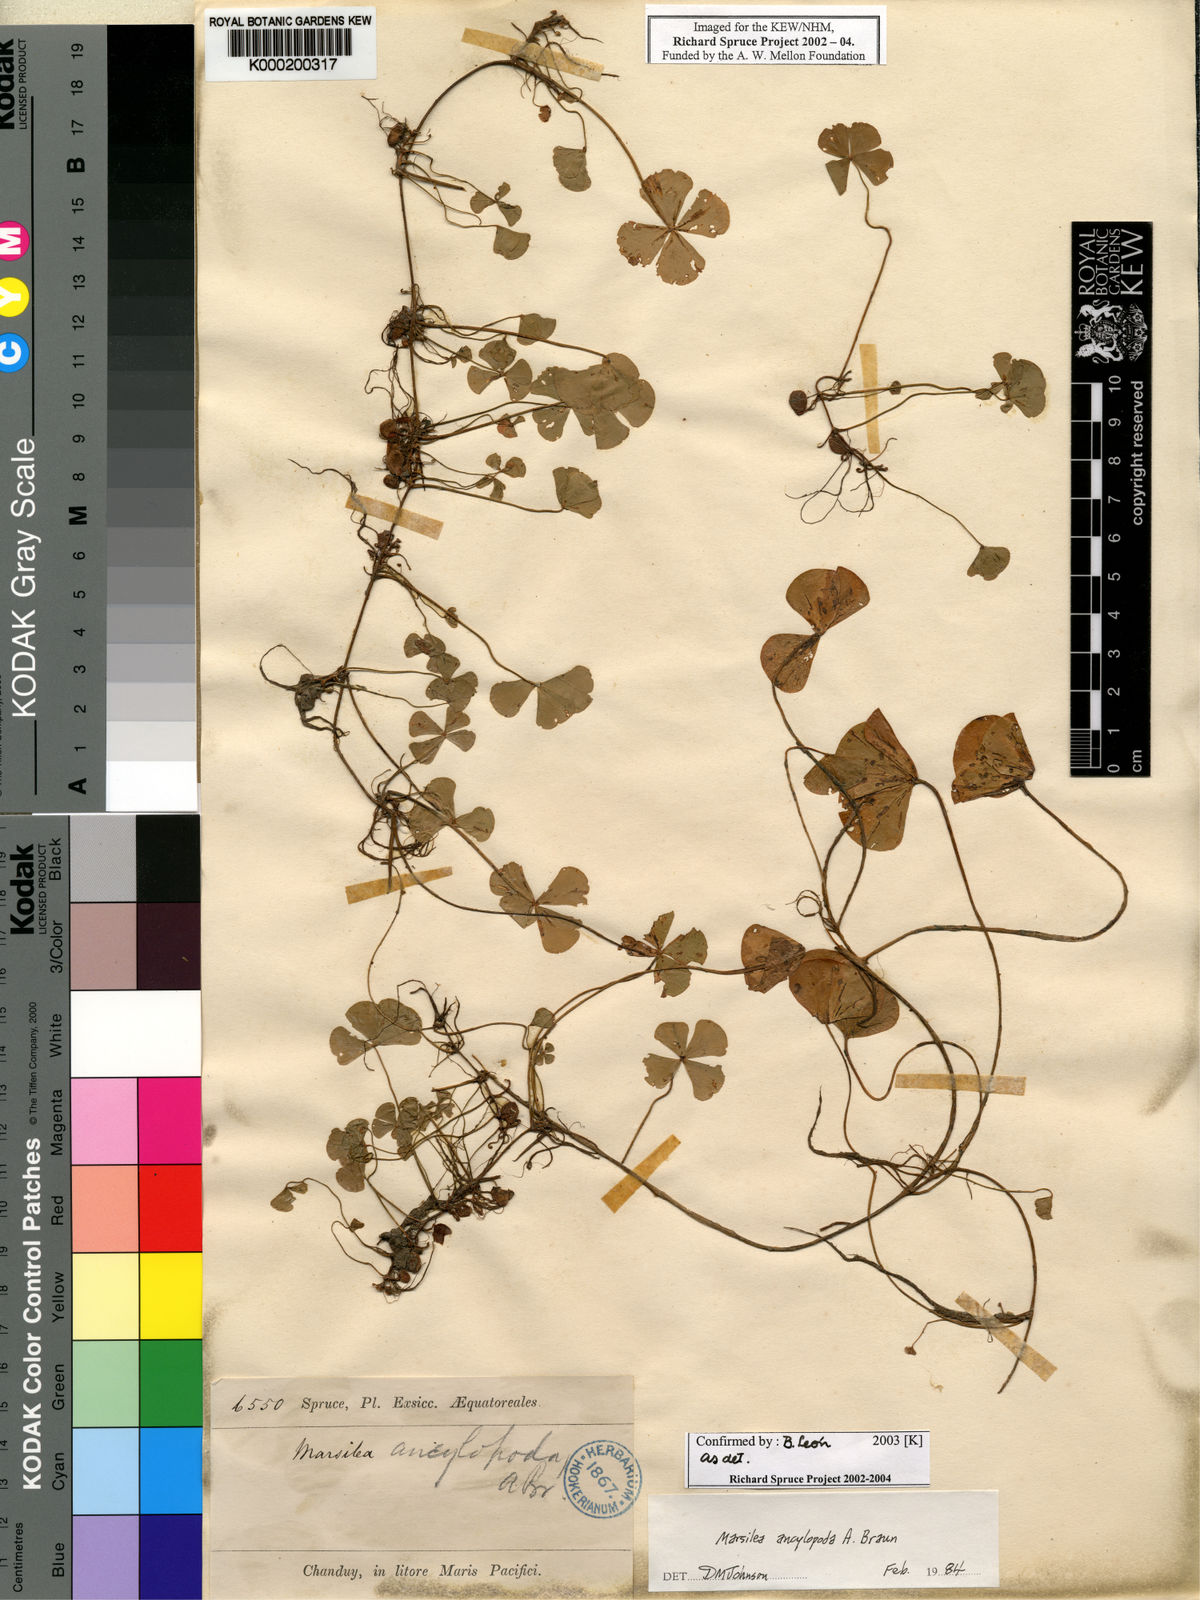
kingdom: Plantae
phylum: Tracheophyta
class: Polypodiopsida
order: Salviniales
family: Marsileaceae
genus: Marsilea
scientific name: Marsilea ancylopoda
